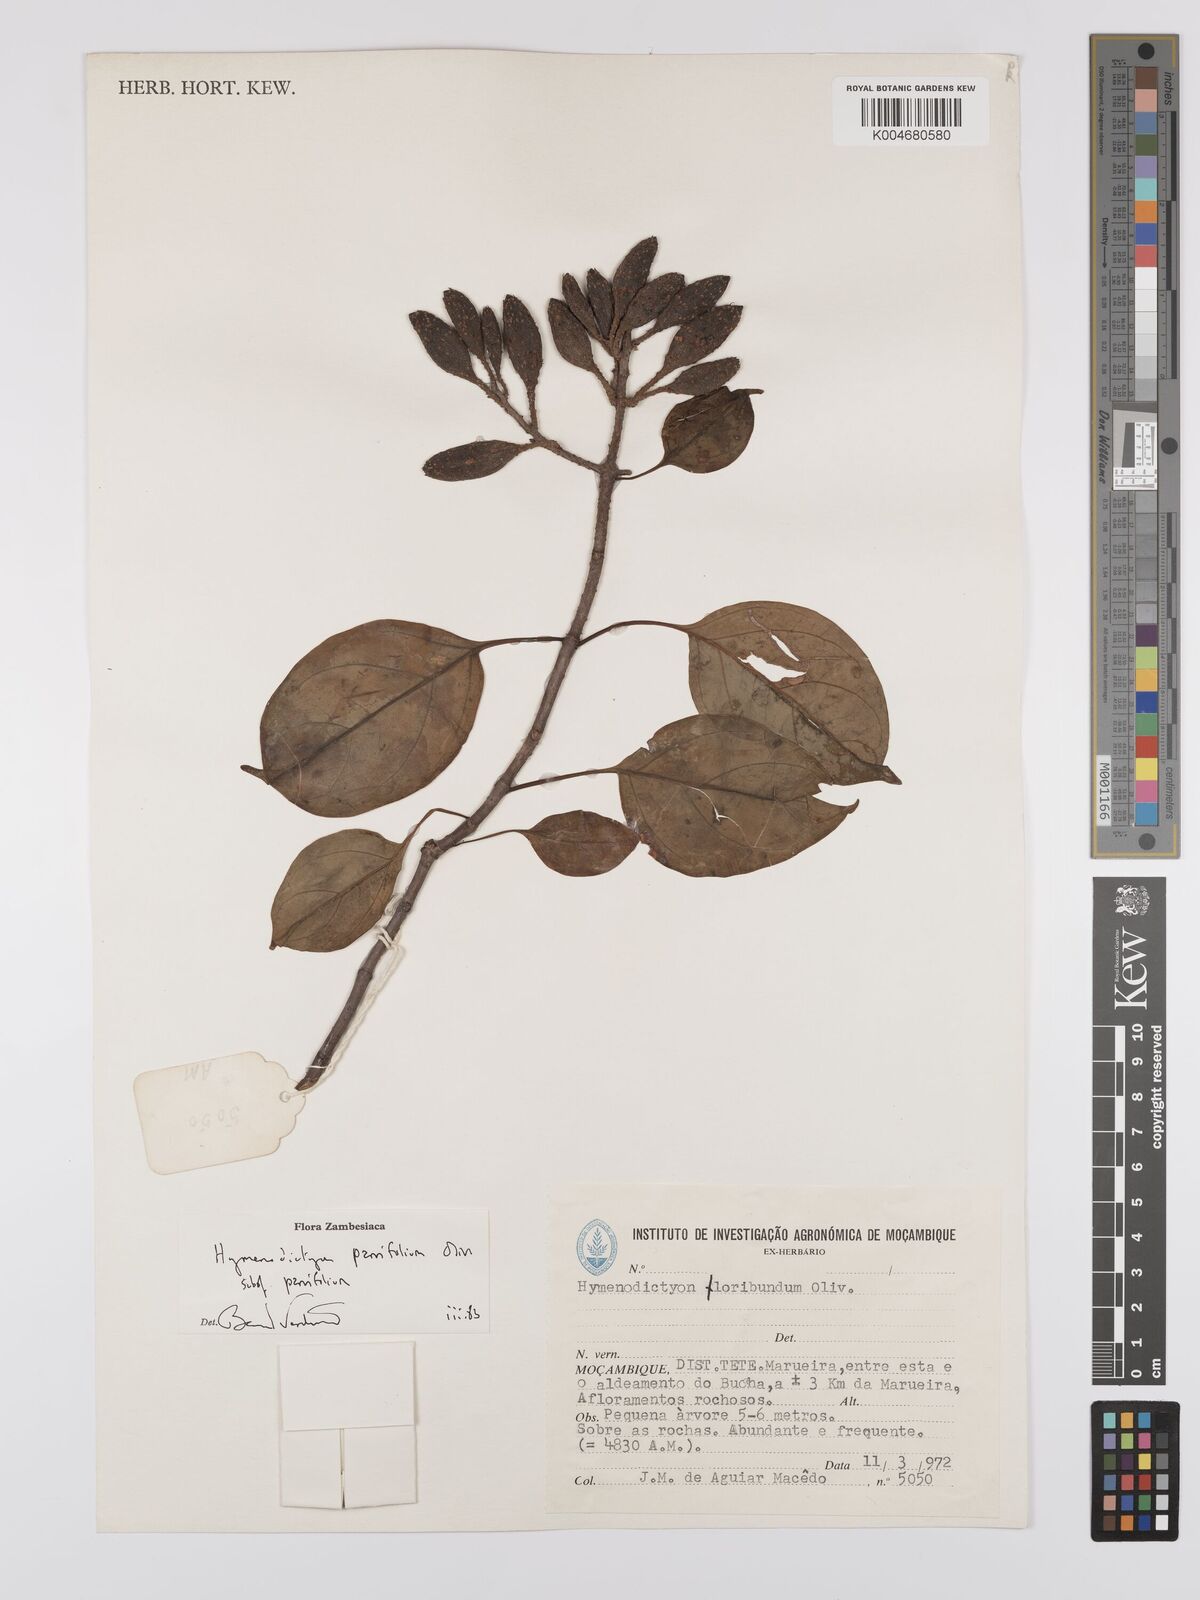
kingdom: Plantae
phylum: Tracheophyta
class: Magnoliopsida
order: Gentianales
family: Rubiaceae
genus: Hymenodictyon
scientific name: Hymenodictyon parvifolium
